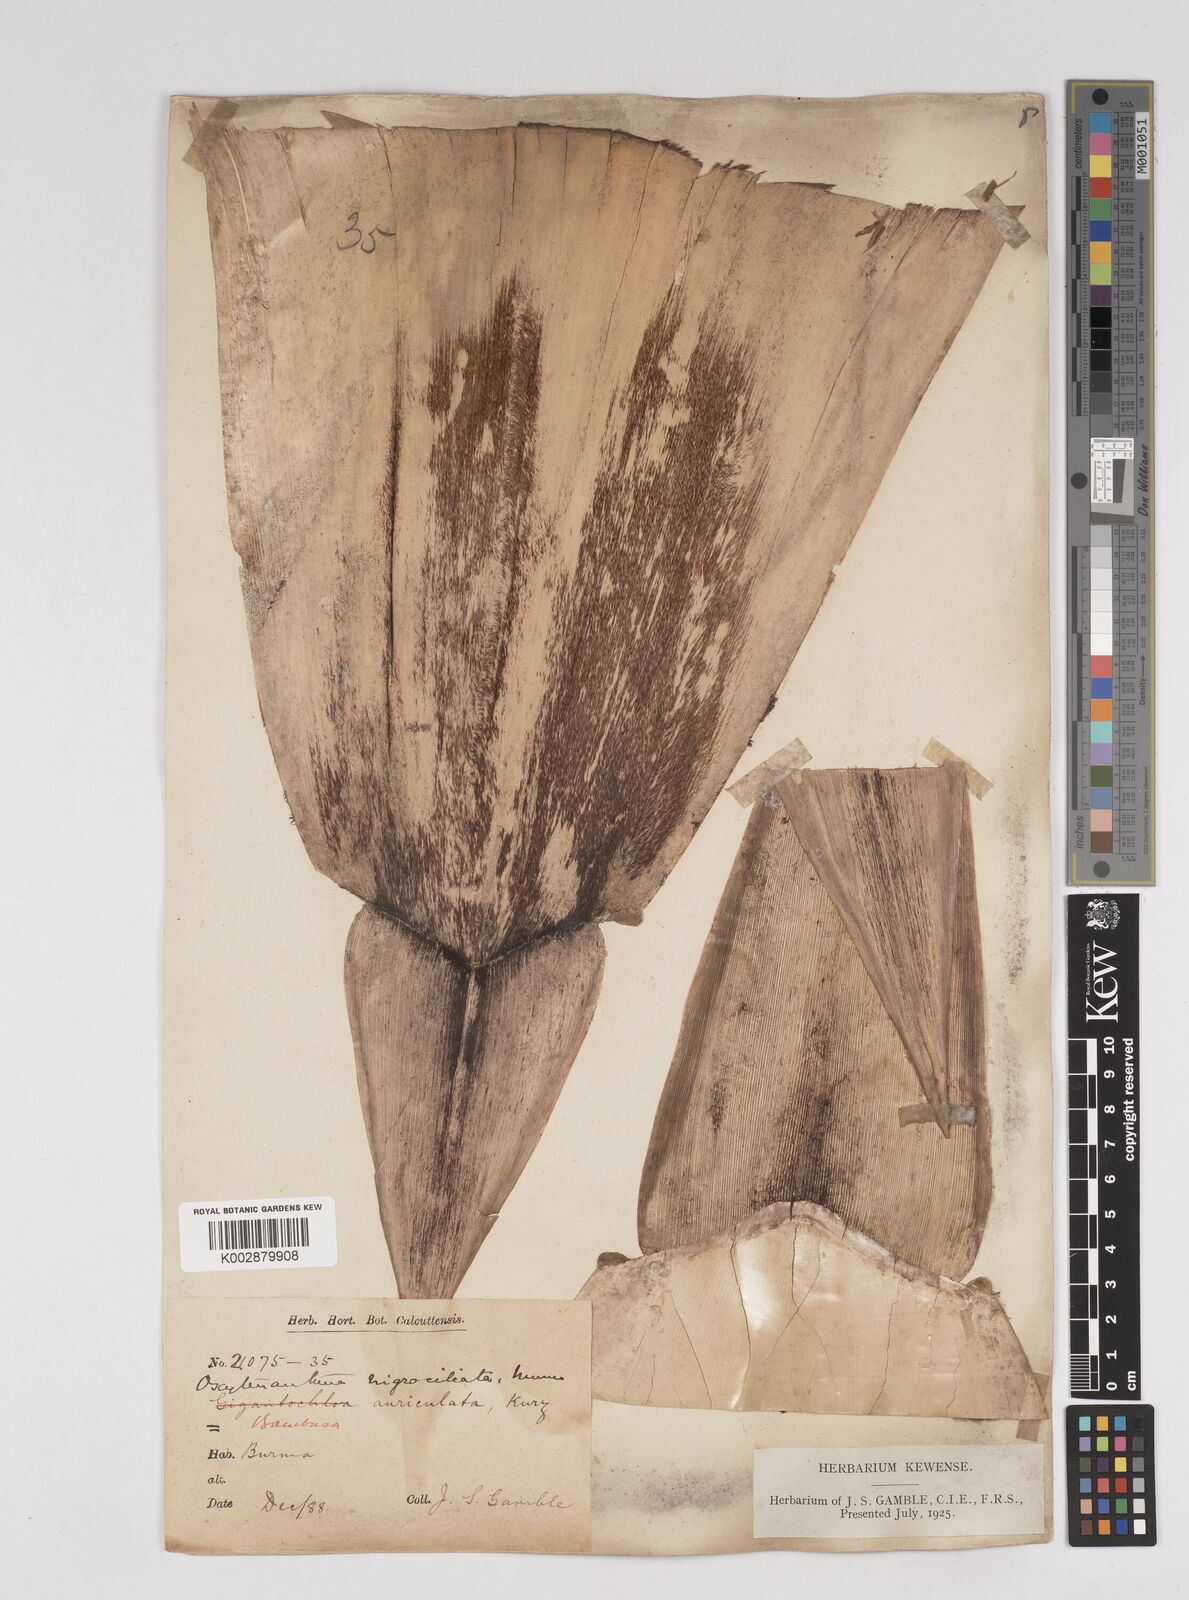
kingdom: Plantae
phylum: Tracheophyta
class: Liliopsida
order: Poales
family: Poaceae
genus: Gigantochloa
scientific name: Gigantochloa nigrociliata
